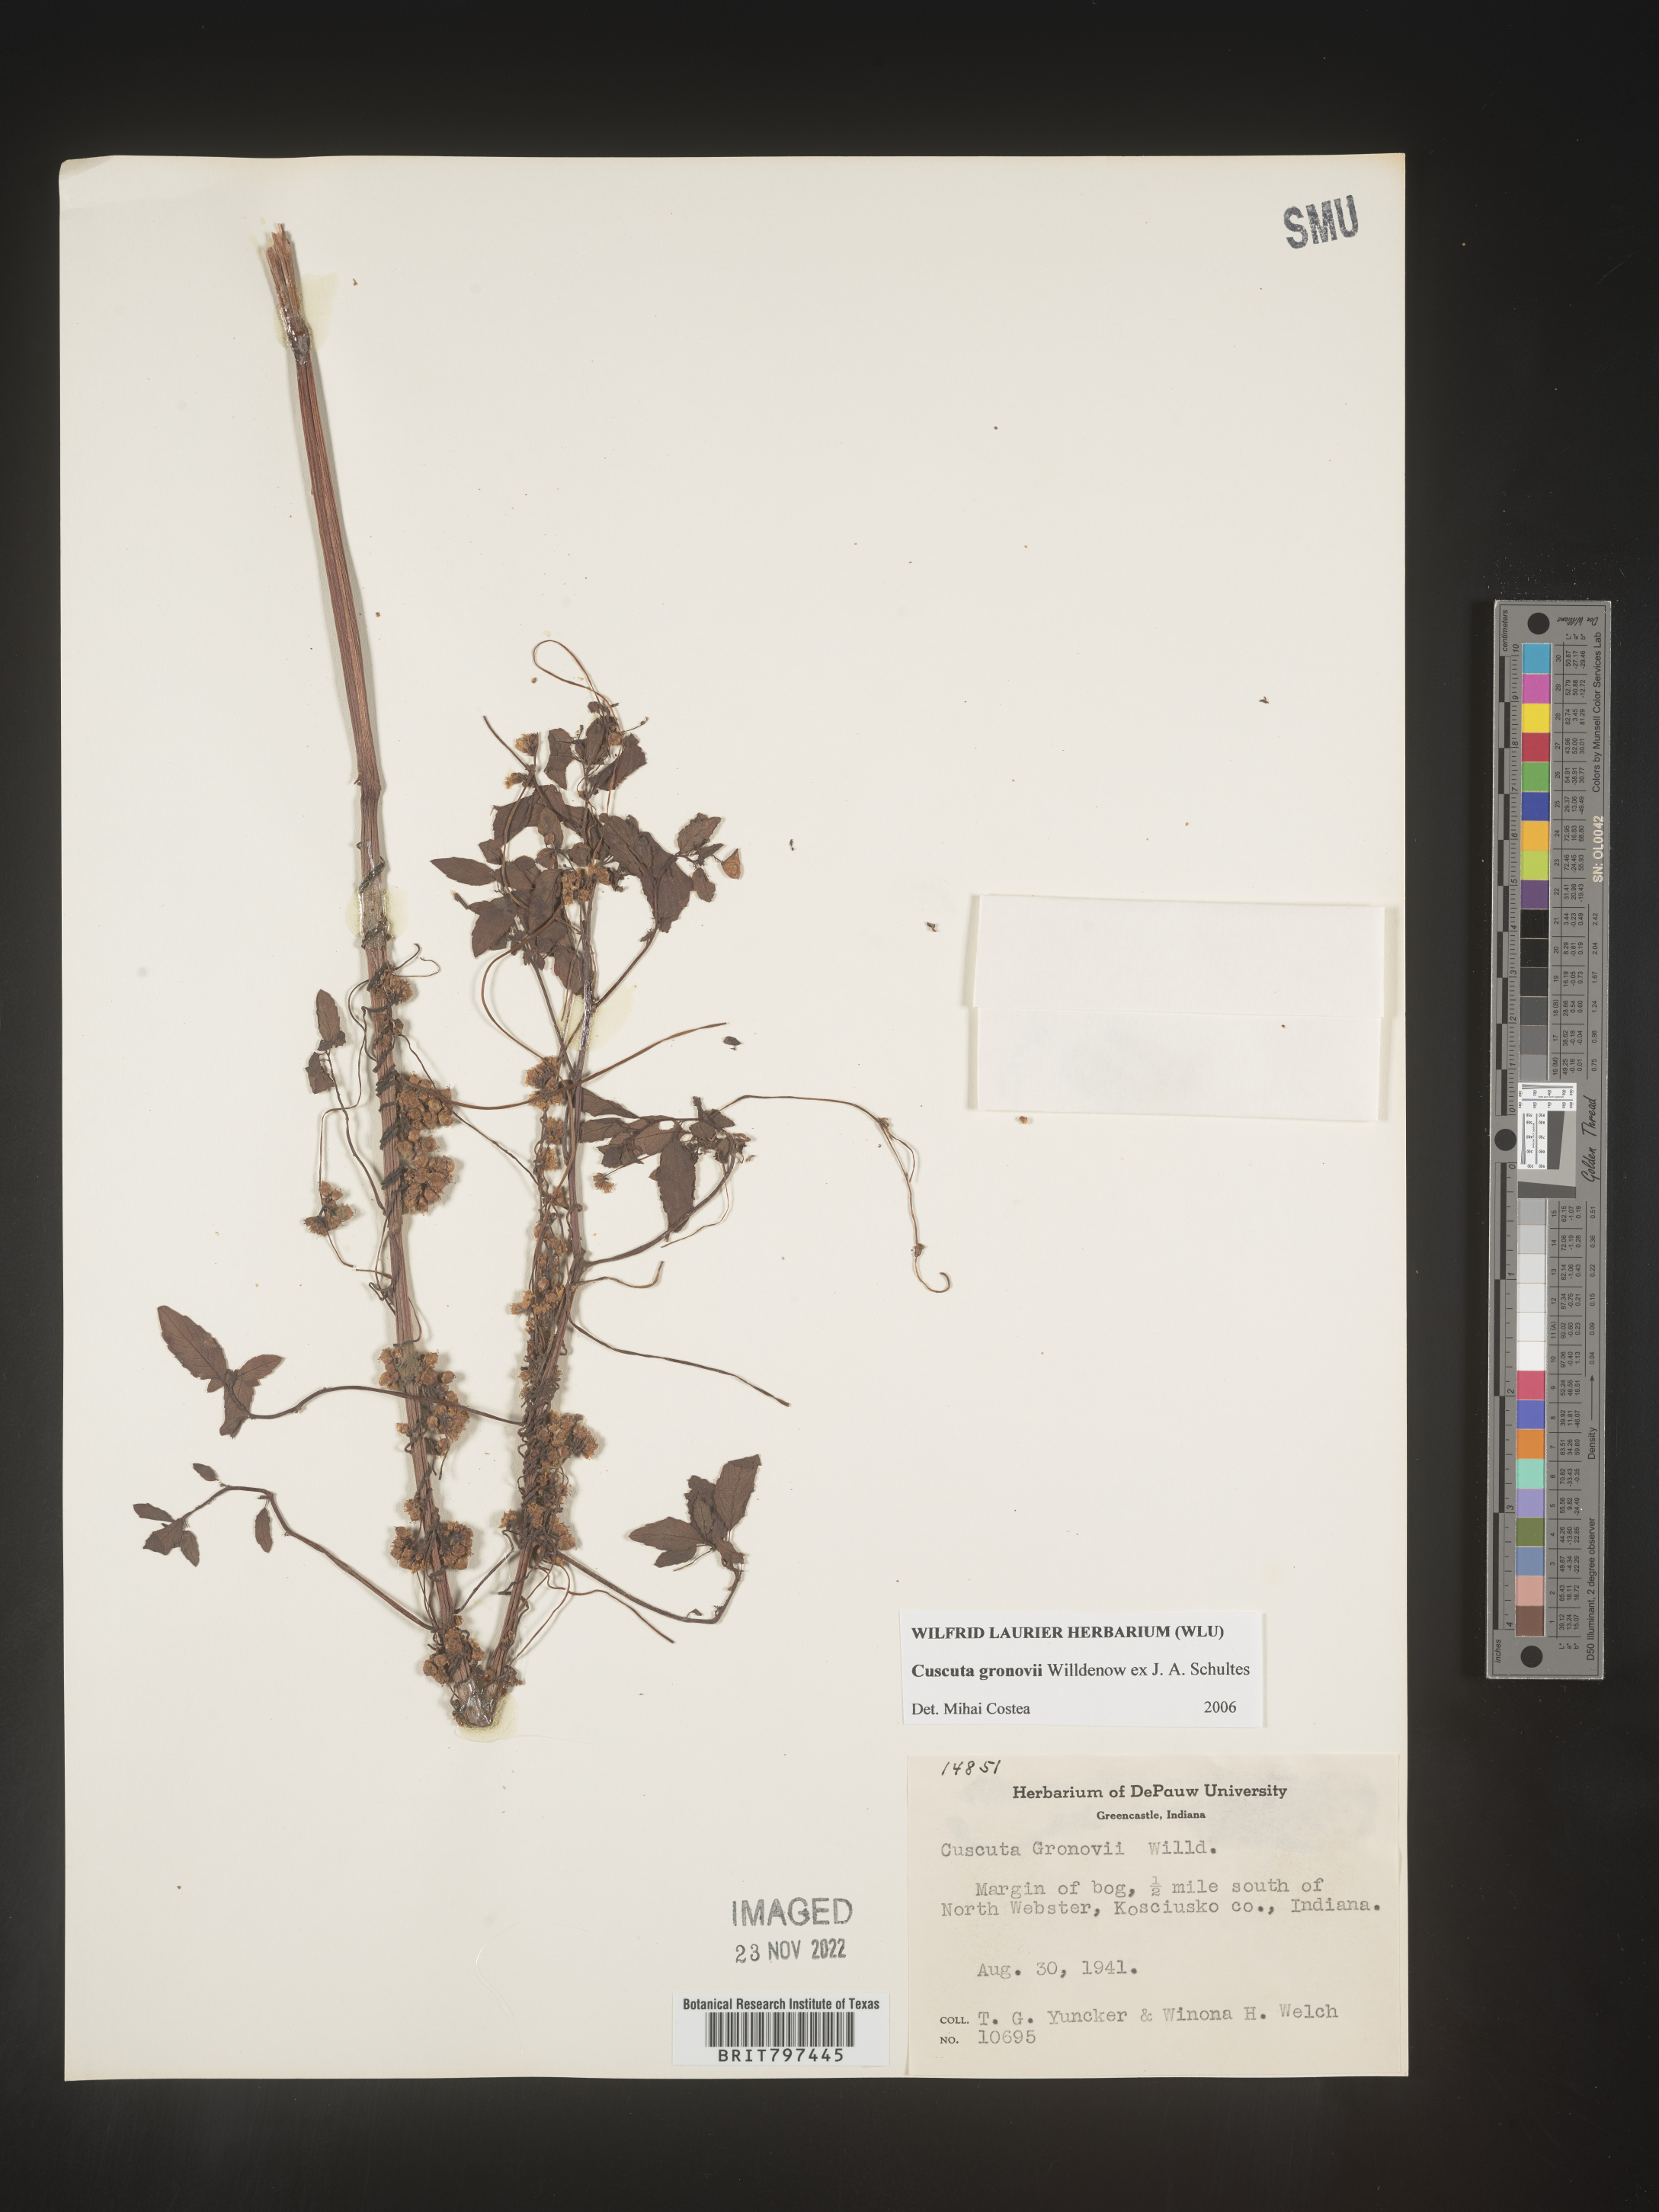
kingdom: Plantae
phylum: Tracheophyta
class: Magnoliopsida
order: Solanales
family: Convolvulaceae
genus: Cuscuta
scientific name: Cuscuta gronovii
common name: Common dodder
